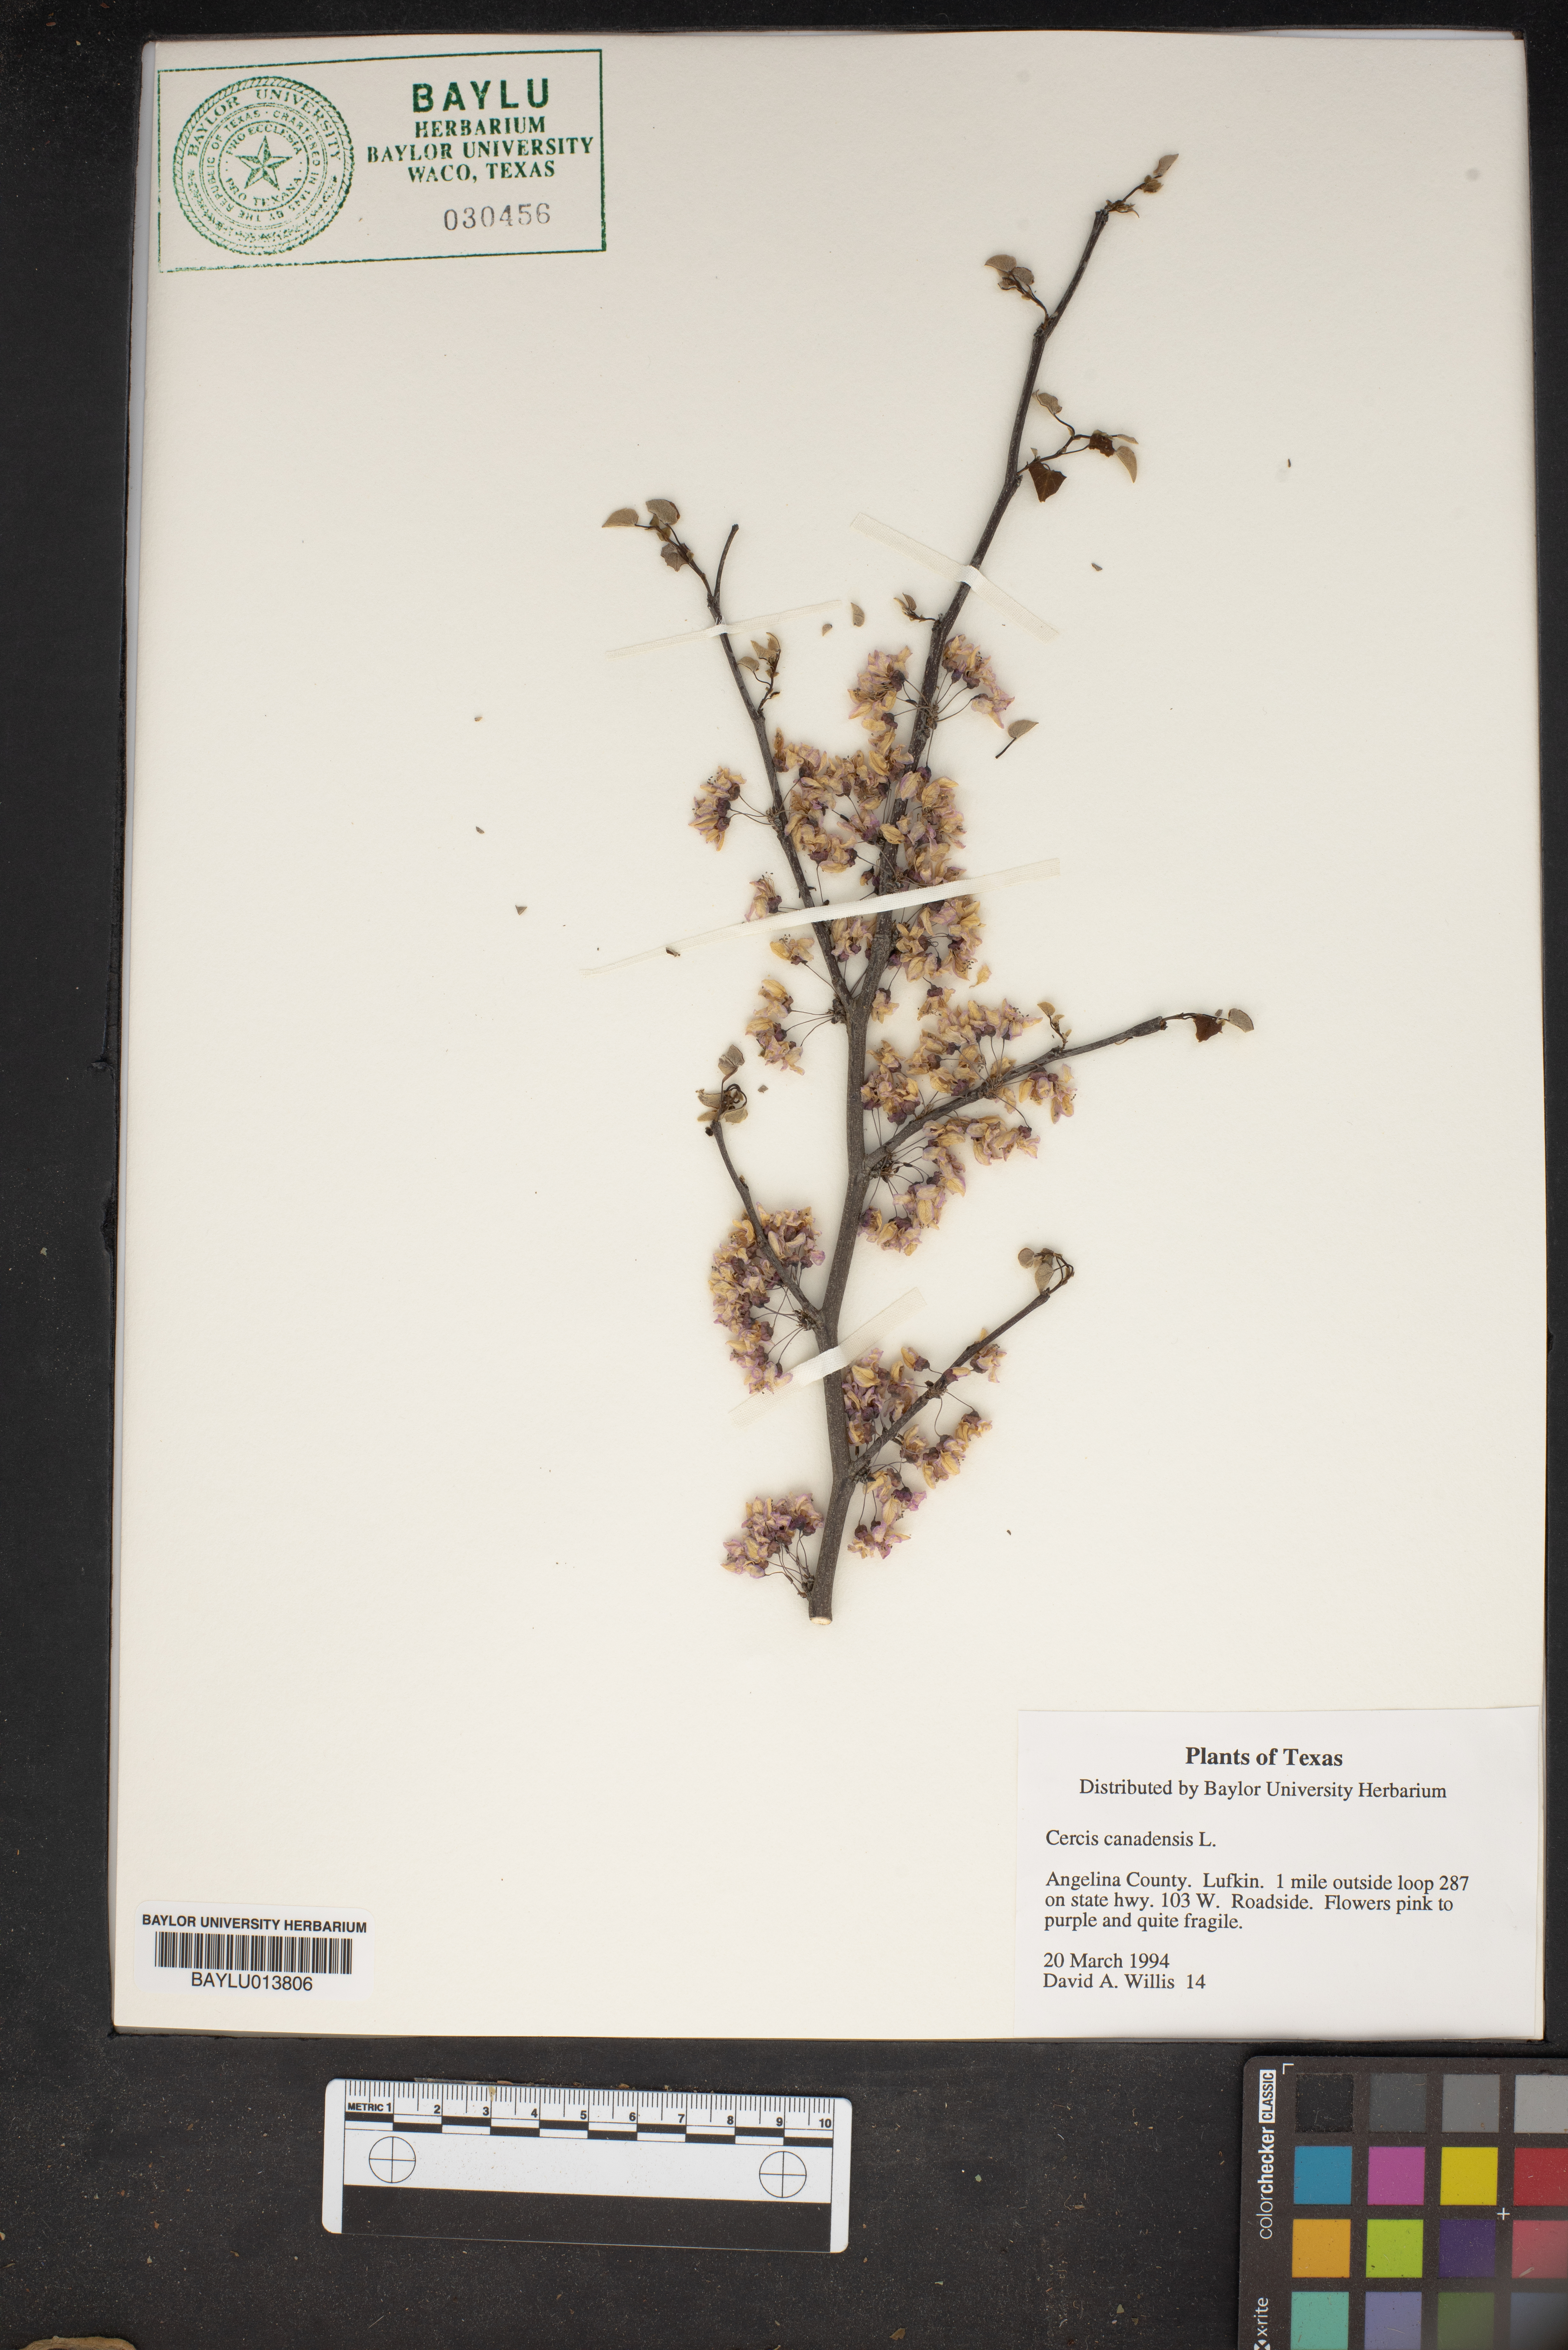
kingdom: Plantae
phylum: Tracheophyta
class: Magnoliopsida
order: Fabales
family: Fabaceae
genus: Cercis
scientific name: Cercis canadensis
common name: Eastern redbud
